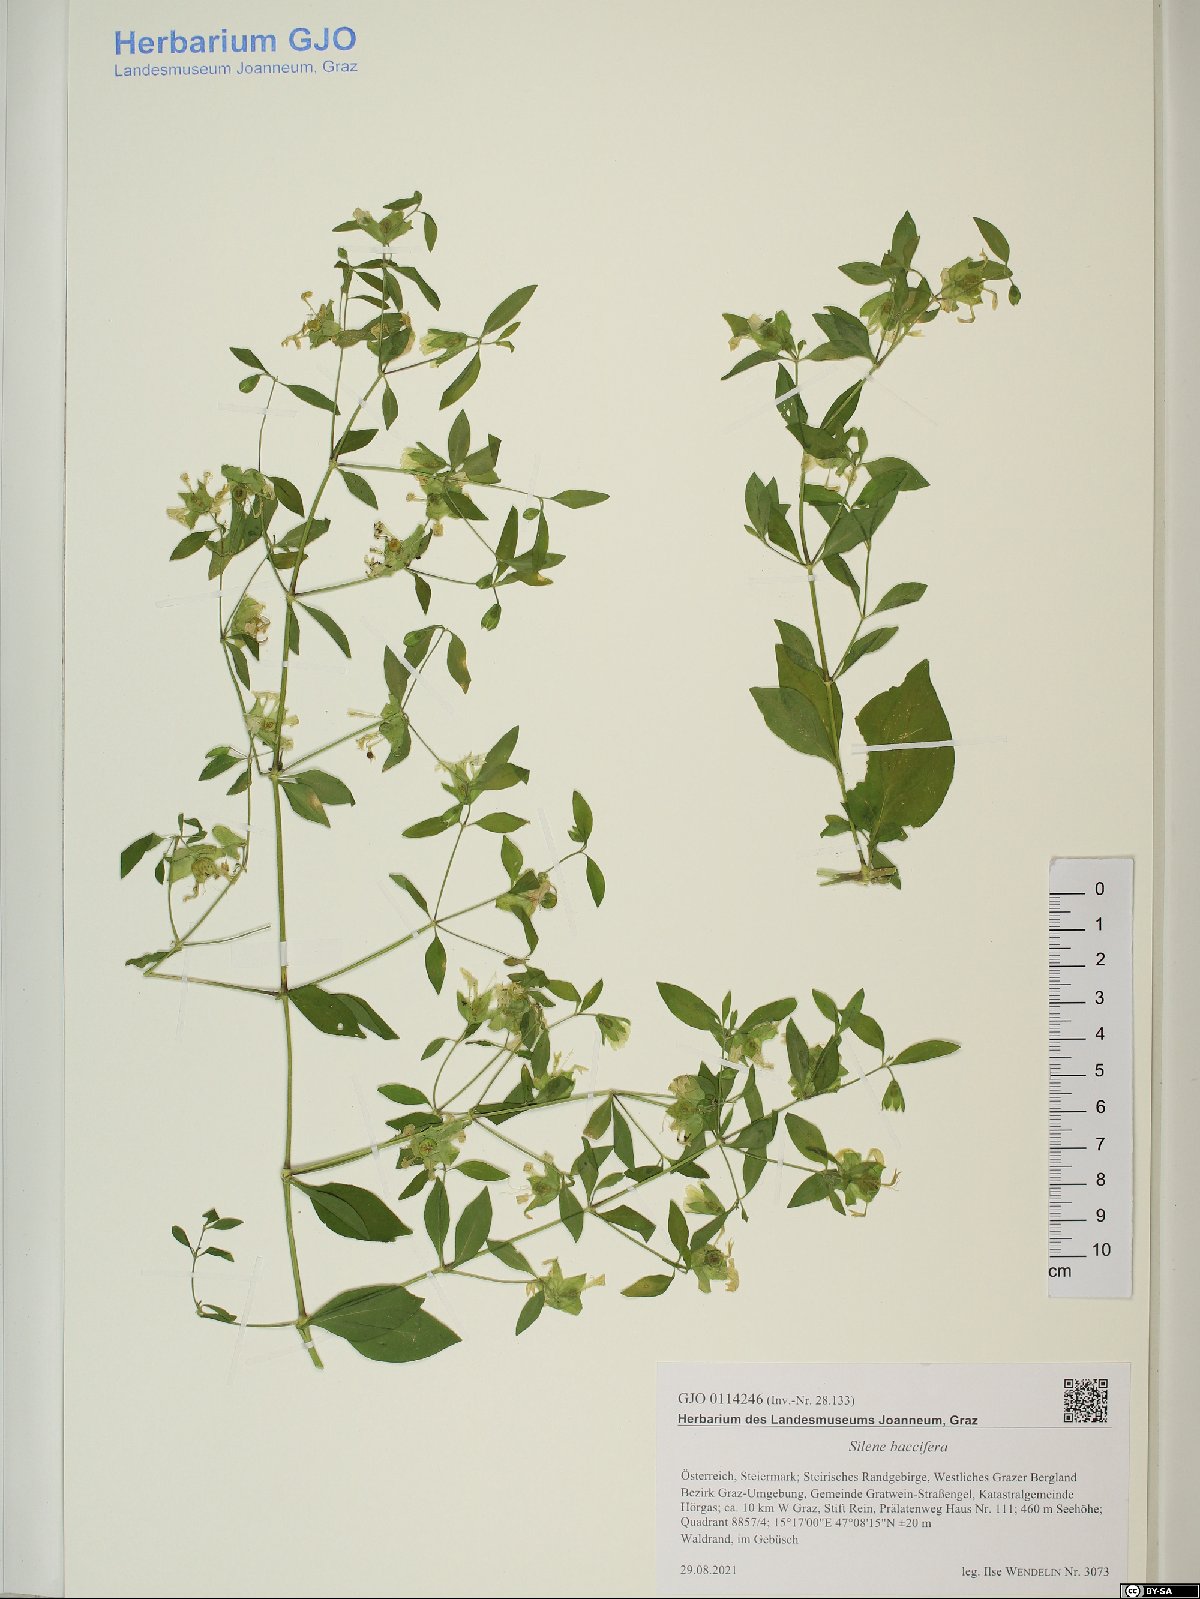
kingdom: Plantae
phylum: Tracheophyta
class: Magnoliopsida
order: Caryophyllales
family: Caryophyllaceae
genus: Silene
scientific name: Silene baccifera
